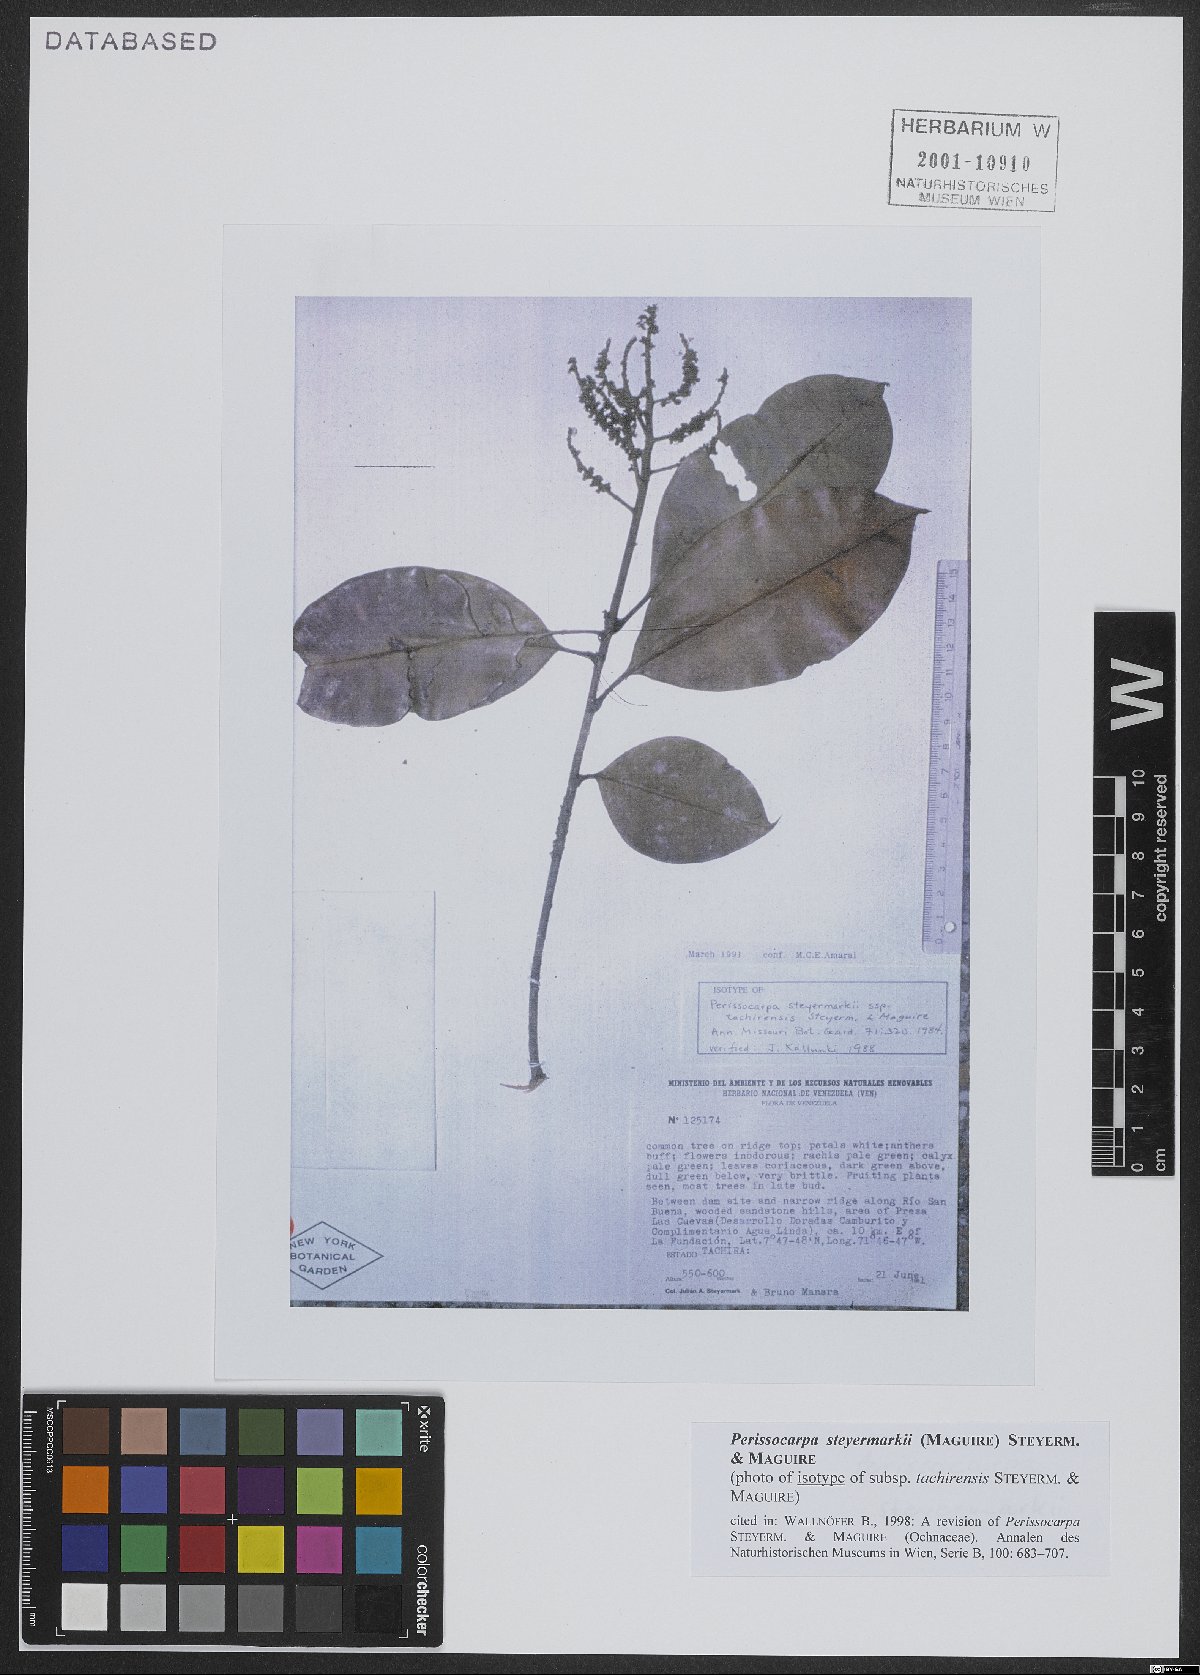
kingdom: Plantae
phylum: Tracheophyta
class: Magnoliopsida
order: Malpighiales
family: Ochnaceae
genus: Perissocarpa
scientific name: Perissocarpa steyermarkii
